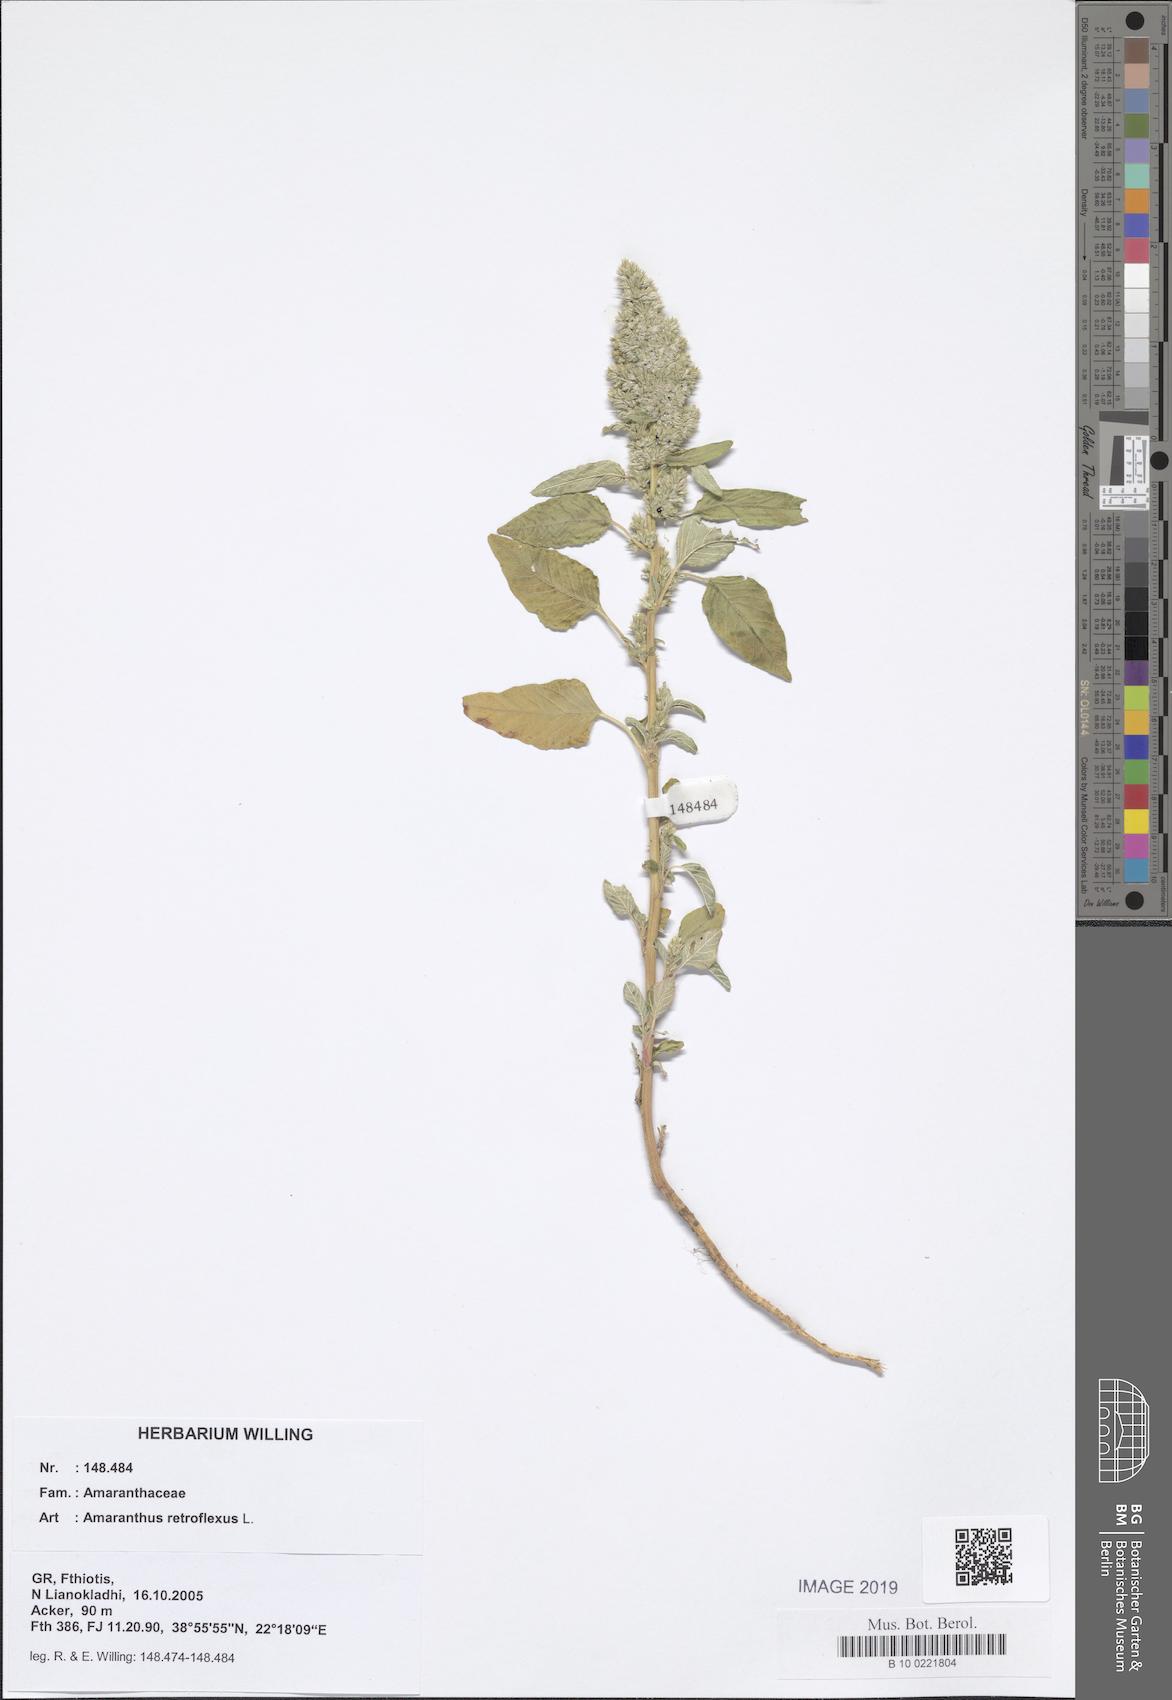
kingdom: Plantae
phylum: Tracheophyta
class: Magnoliopsida
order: Caryophyllales
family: Amaranthaceae
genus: Amaranthus
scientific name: Amaranthus retroflexus
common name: Redroot amaranth
